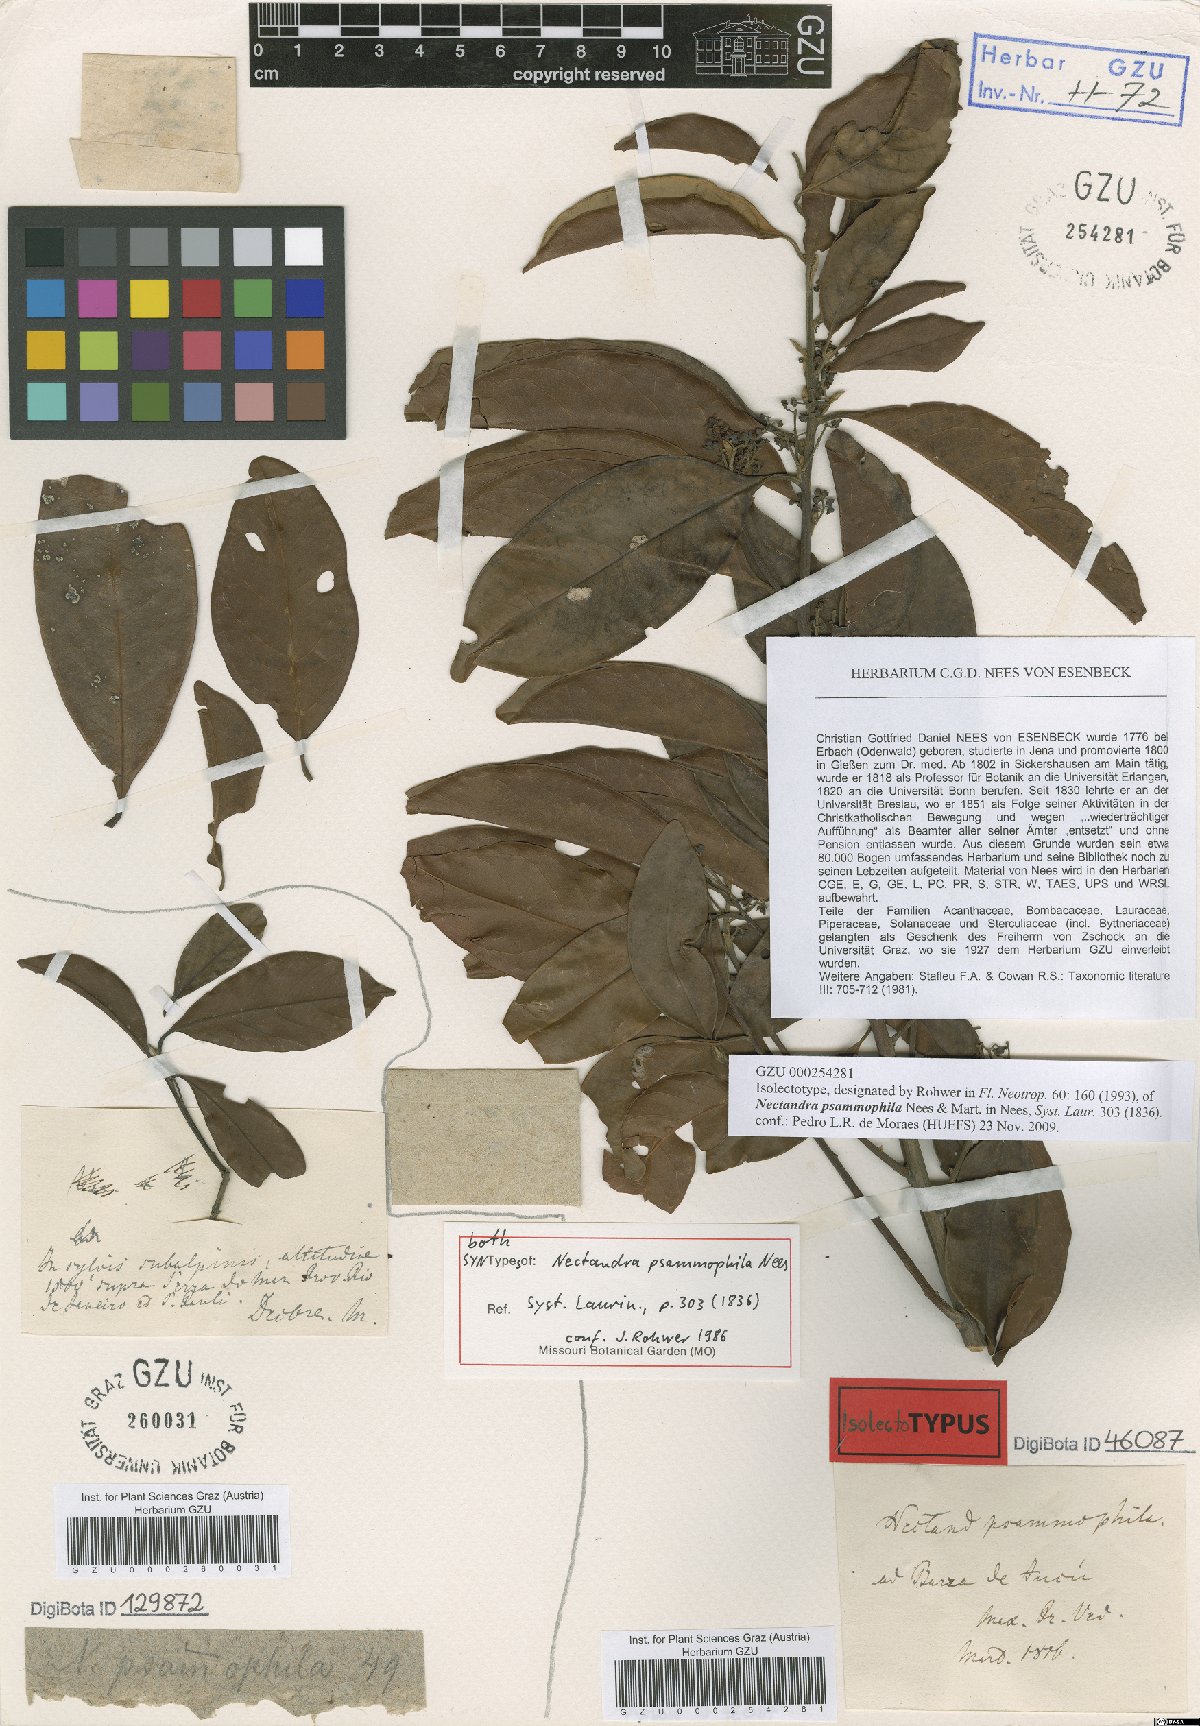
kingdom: Plantae
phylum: Tracheophyta
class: Magnoliopsida
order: Laurales
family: Lauraceae
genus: Nectandra
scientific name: Nectandra psammophila
